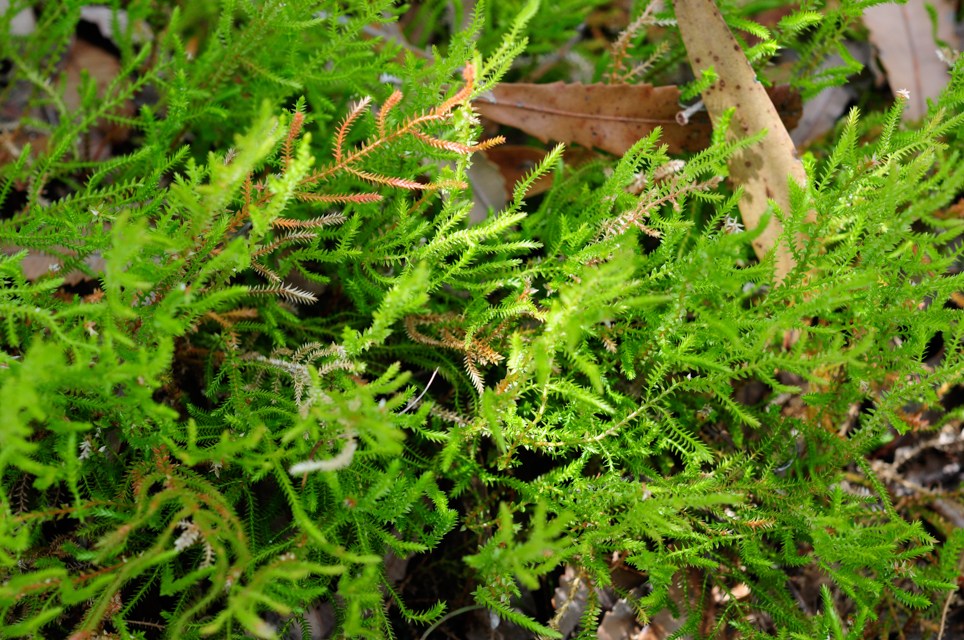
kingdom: Plantae
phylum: Tracheophyta
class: Lycopodiopsida
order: Selaginellales
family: Selaginellaceae
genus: Selaginella
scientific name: Selaginella uliginosa
